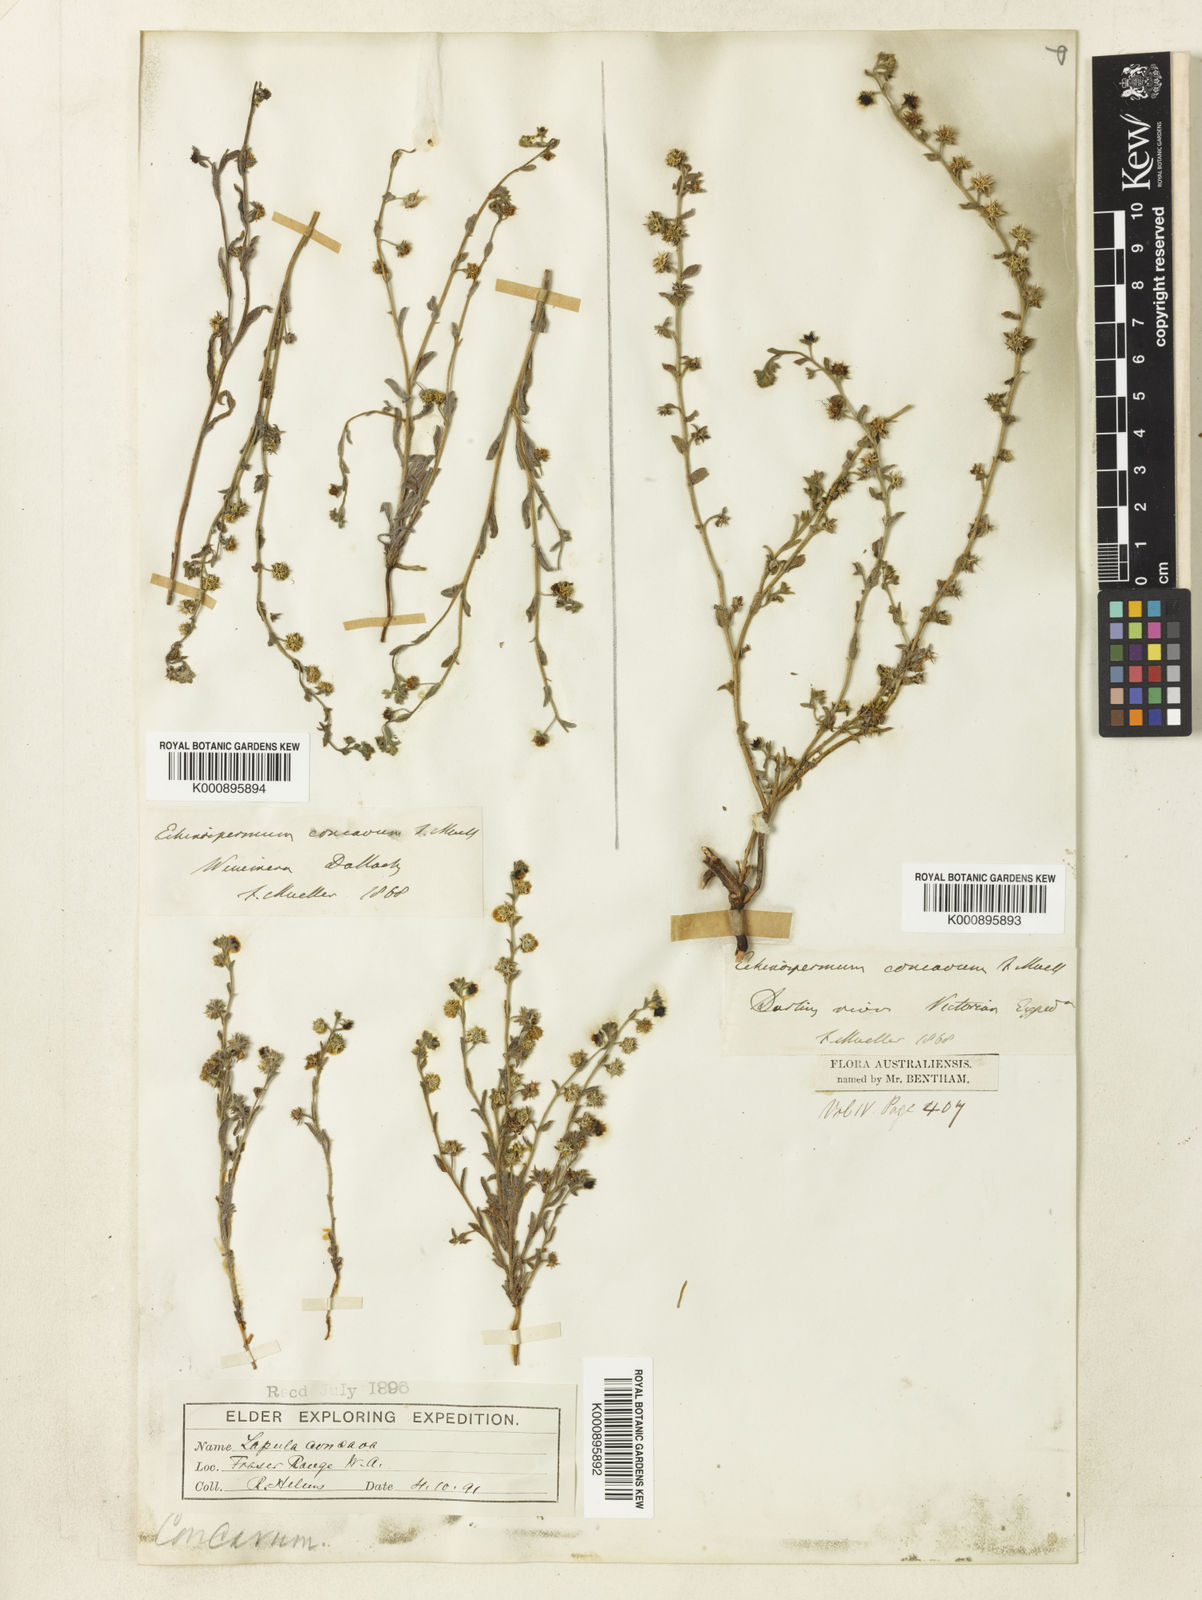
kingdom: Plantae
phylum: Tracheophyta
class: Magnoliopsida
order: Boraginales
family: Boraginaceae
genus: Omphalolappula
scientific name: Omphalolappula concava
